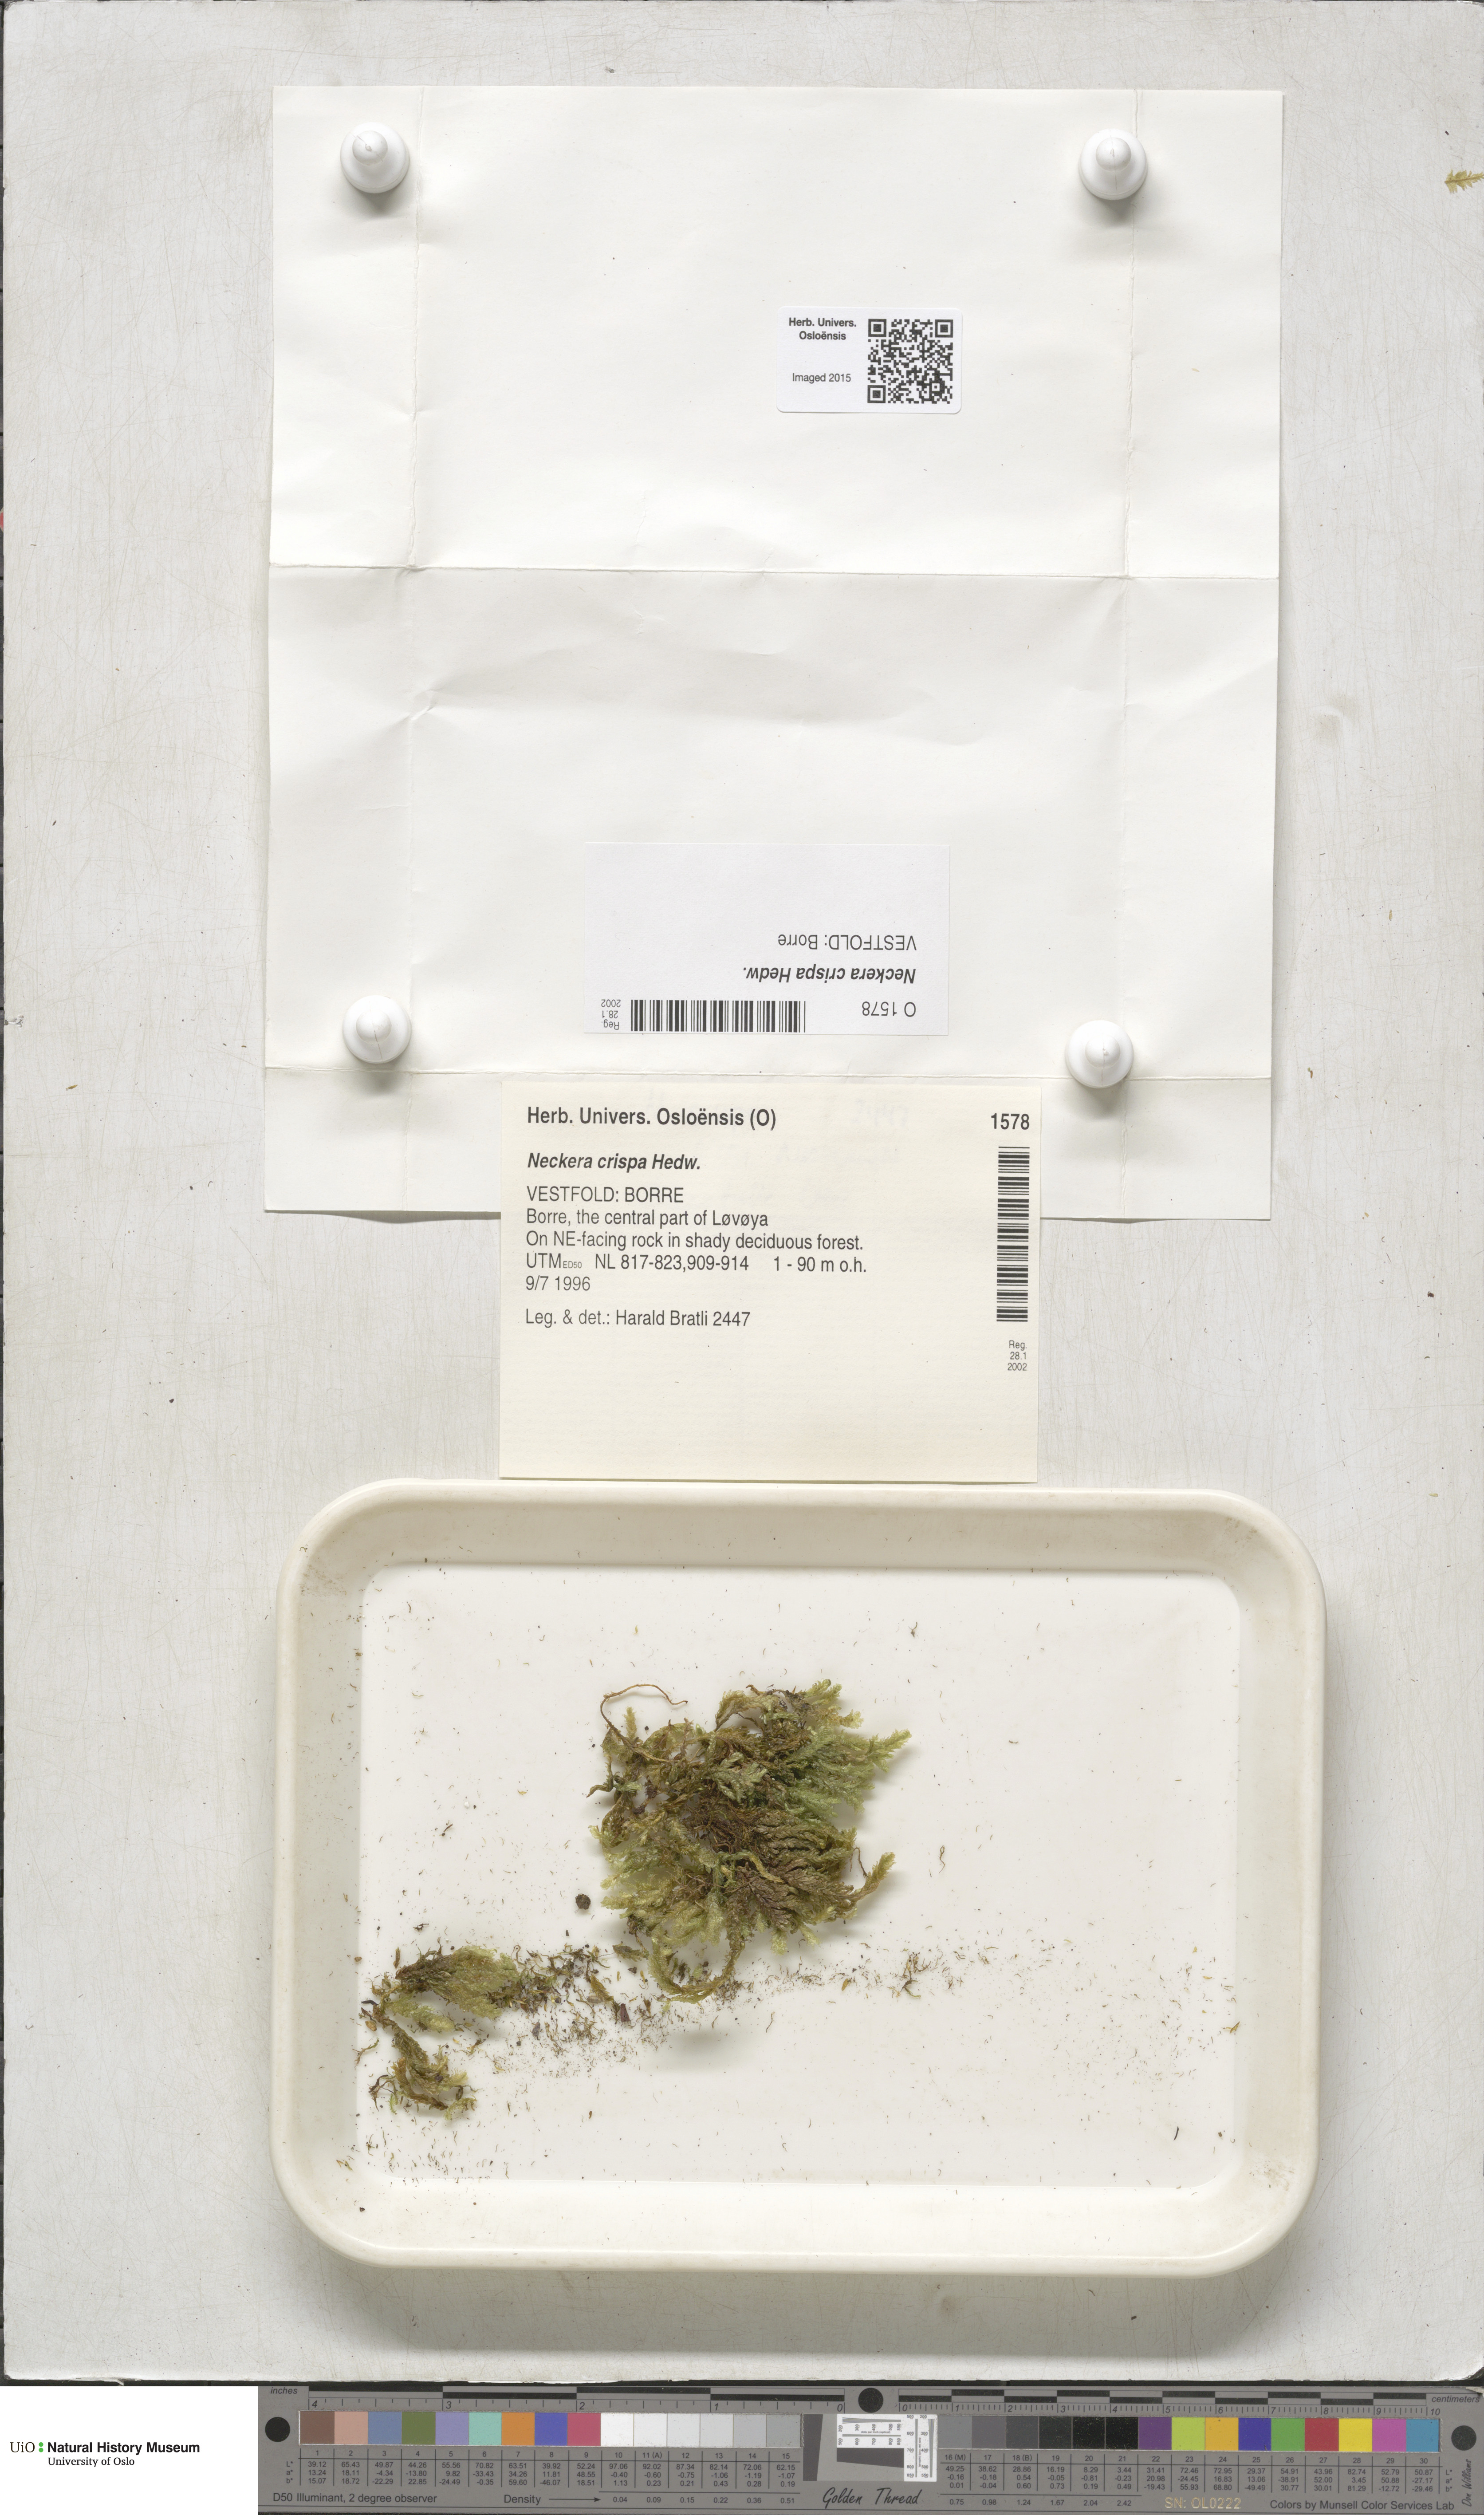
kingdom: Plantae
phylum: Bryophyta
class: Bryopsida
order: Hypnales
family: Neckeraceae
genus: Exsertotheca
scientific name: Exsertotheca crispa
